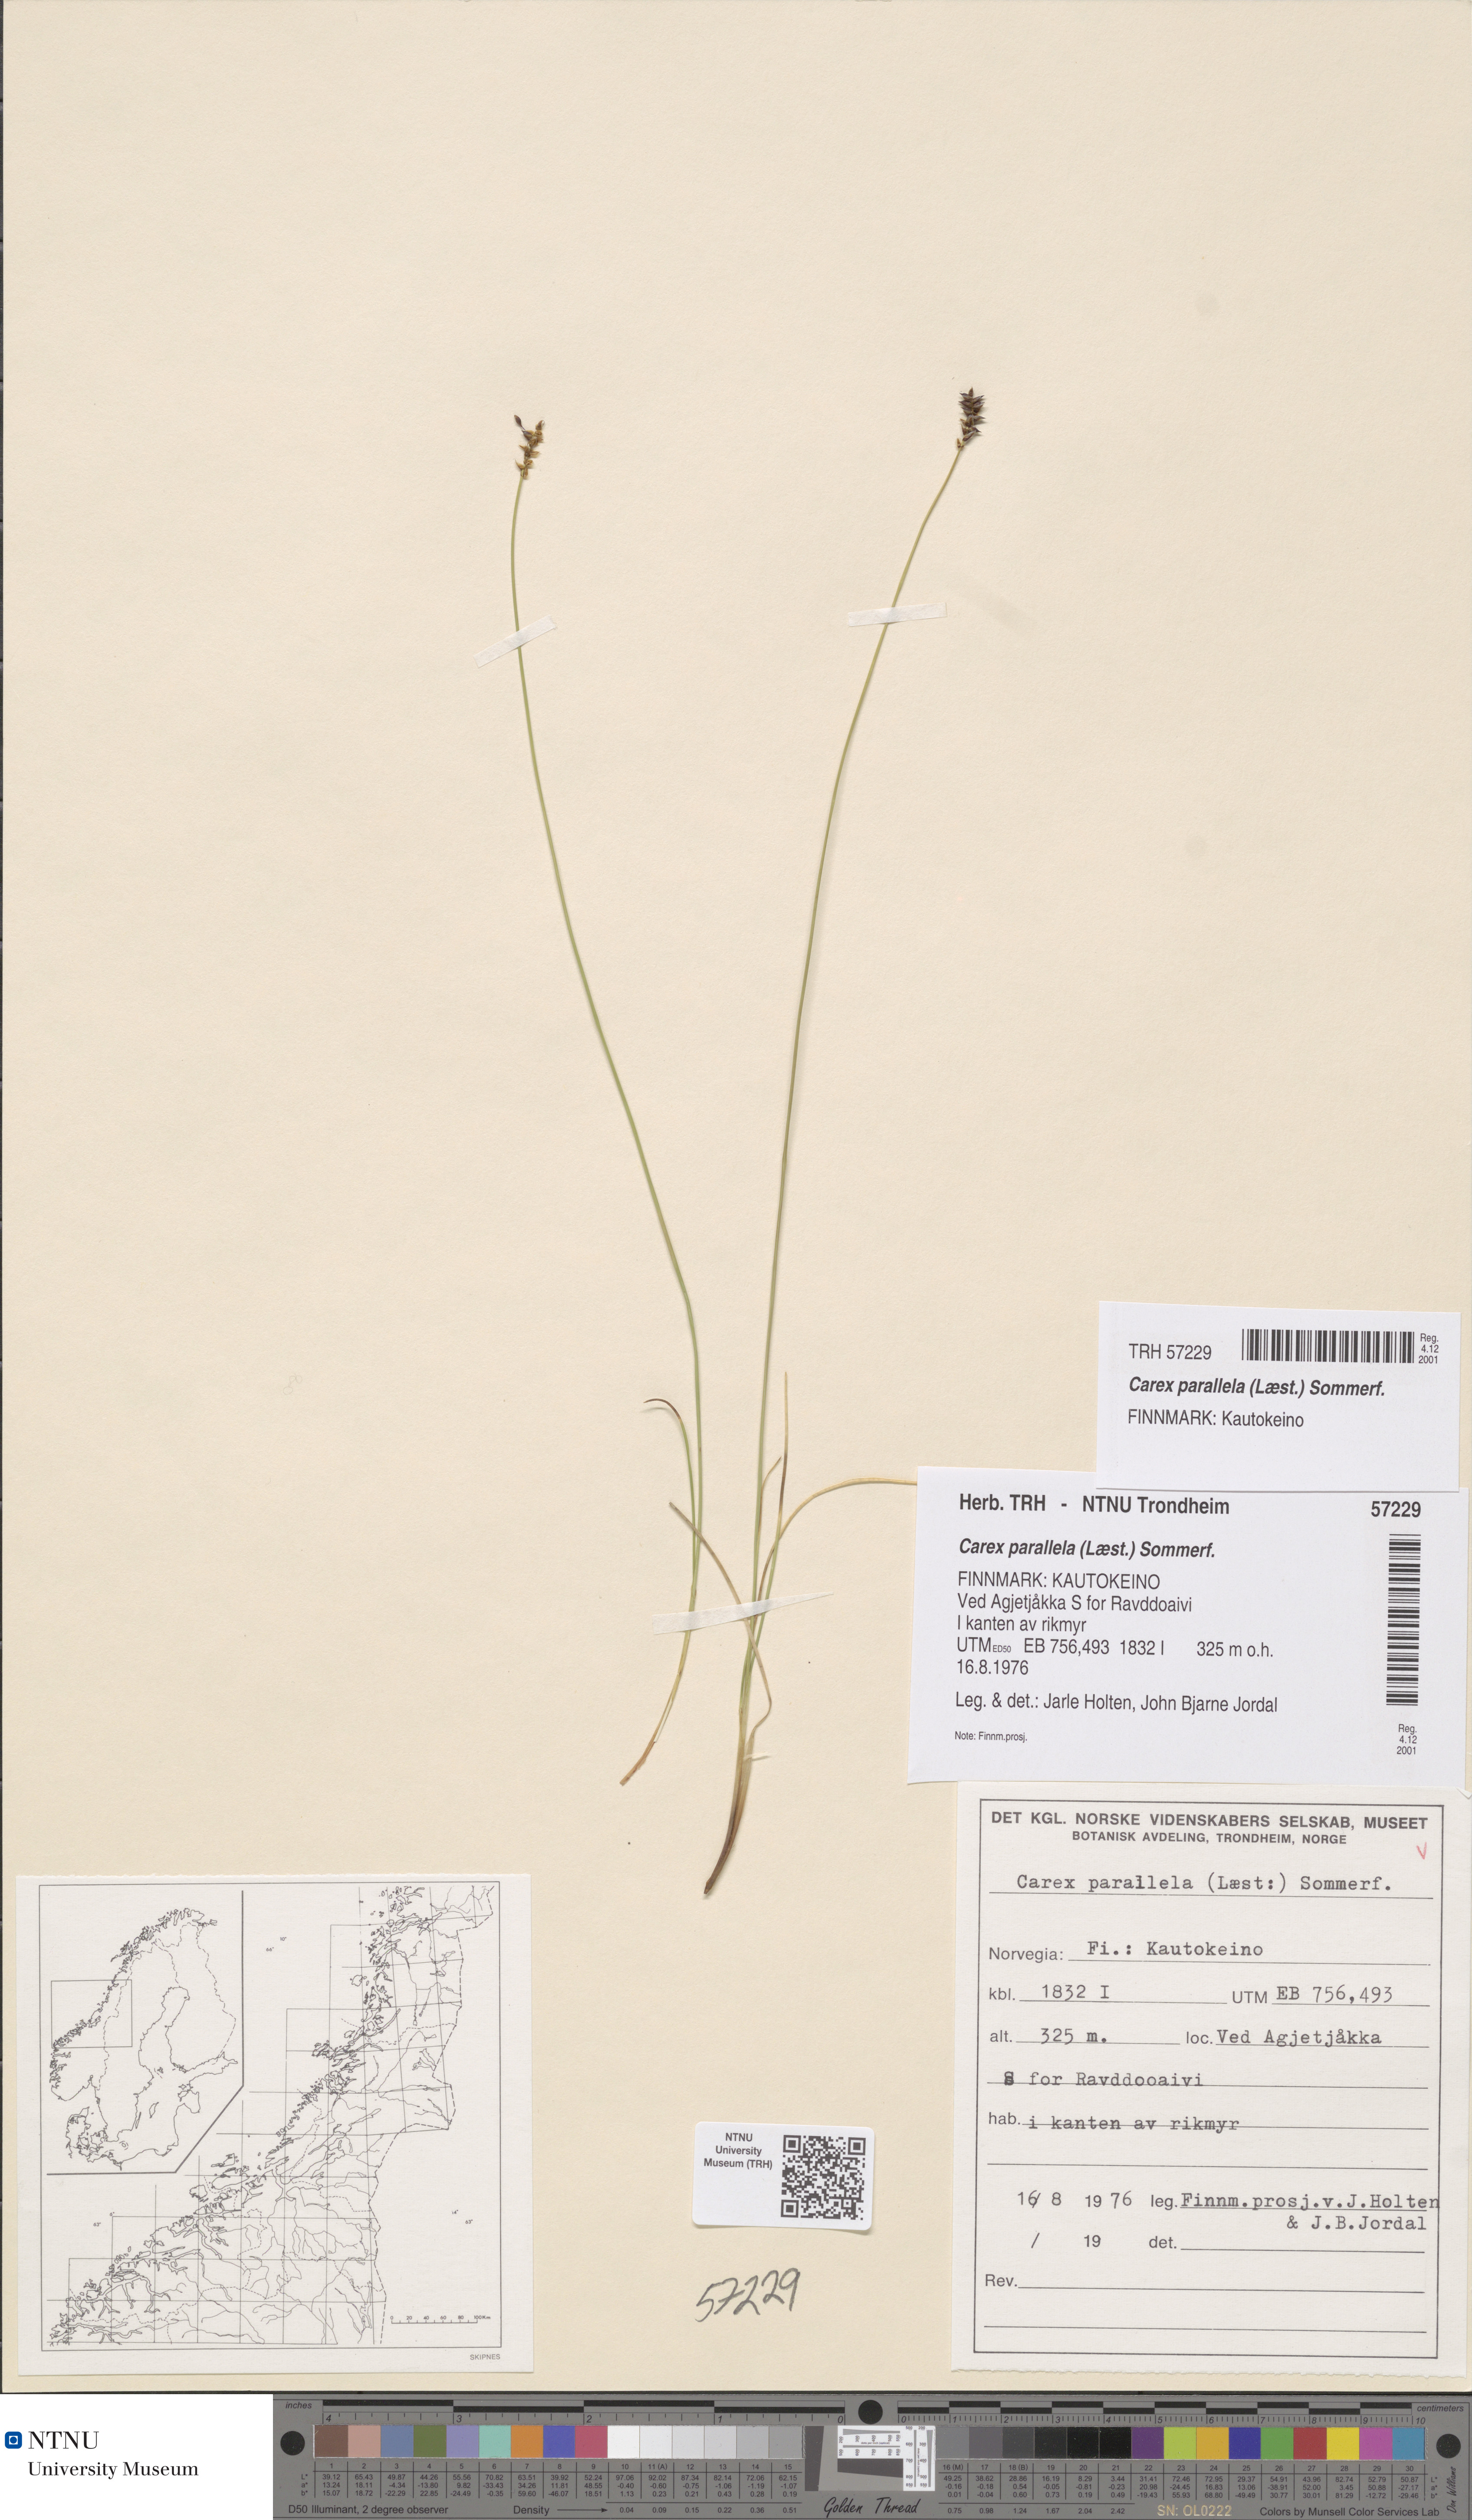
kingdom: Plantae
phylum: Tracheophyta
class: Liliopsida
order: Poales
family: Cyperaceae
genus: Carex
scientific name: Carex parallela
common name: Parallel sedge
